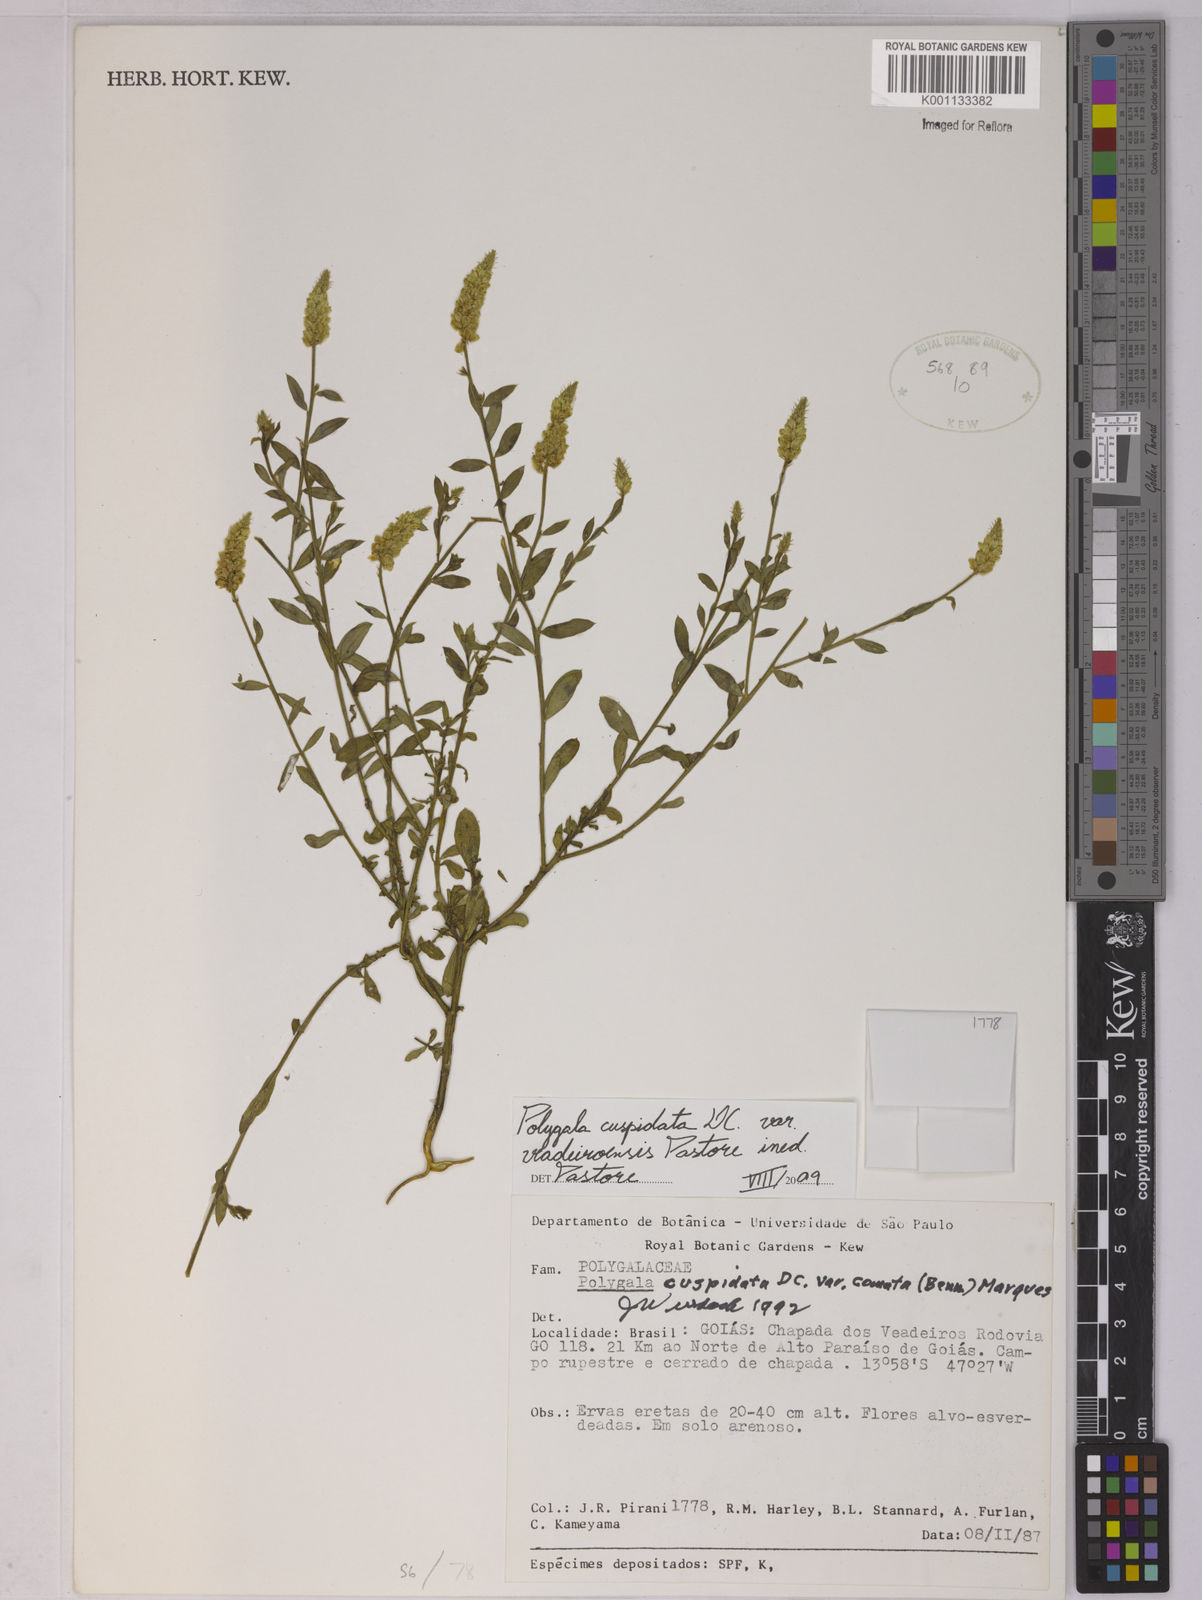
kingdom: Plantae
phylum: Tracheophyta
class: Magnoliopsida
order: Fabales
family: Polygalaceae
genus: Polygala
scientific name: Polygala timoutoides
